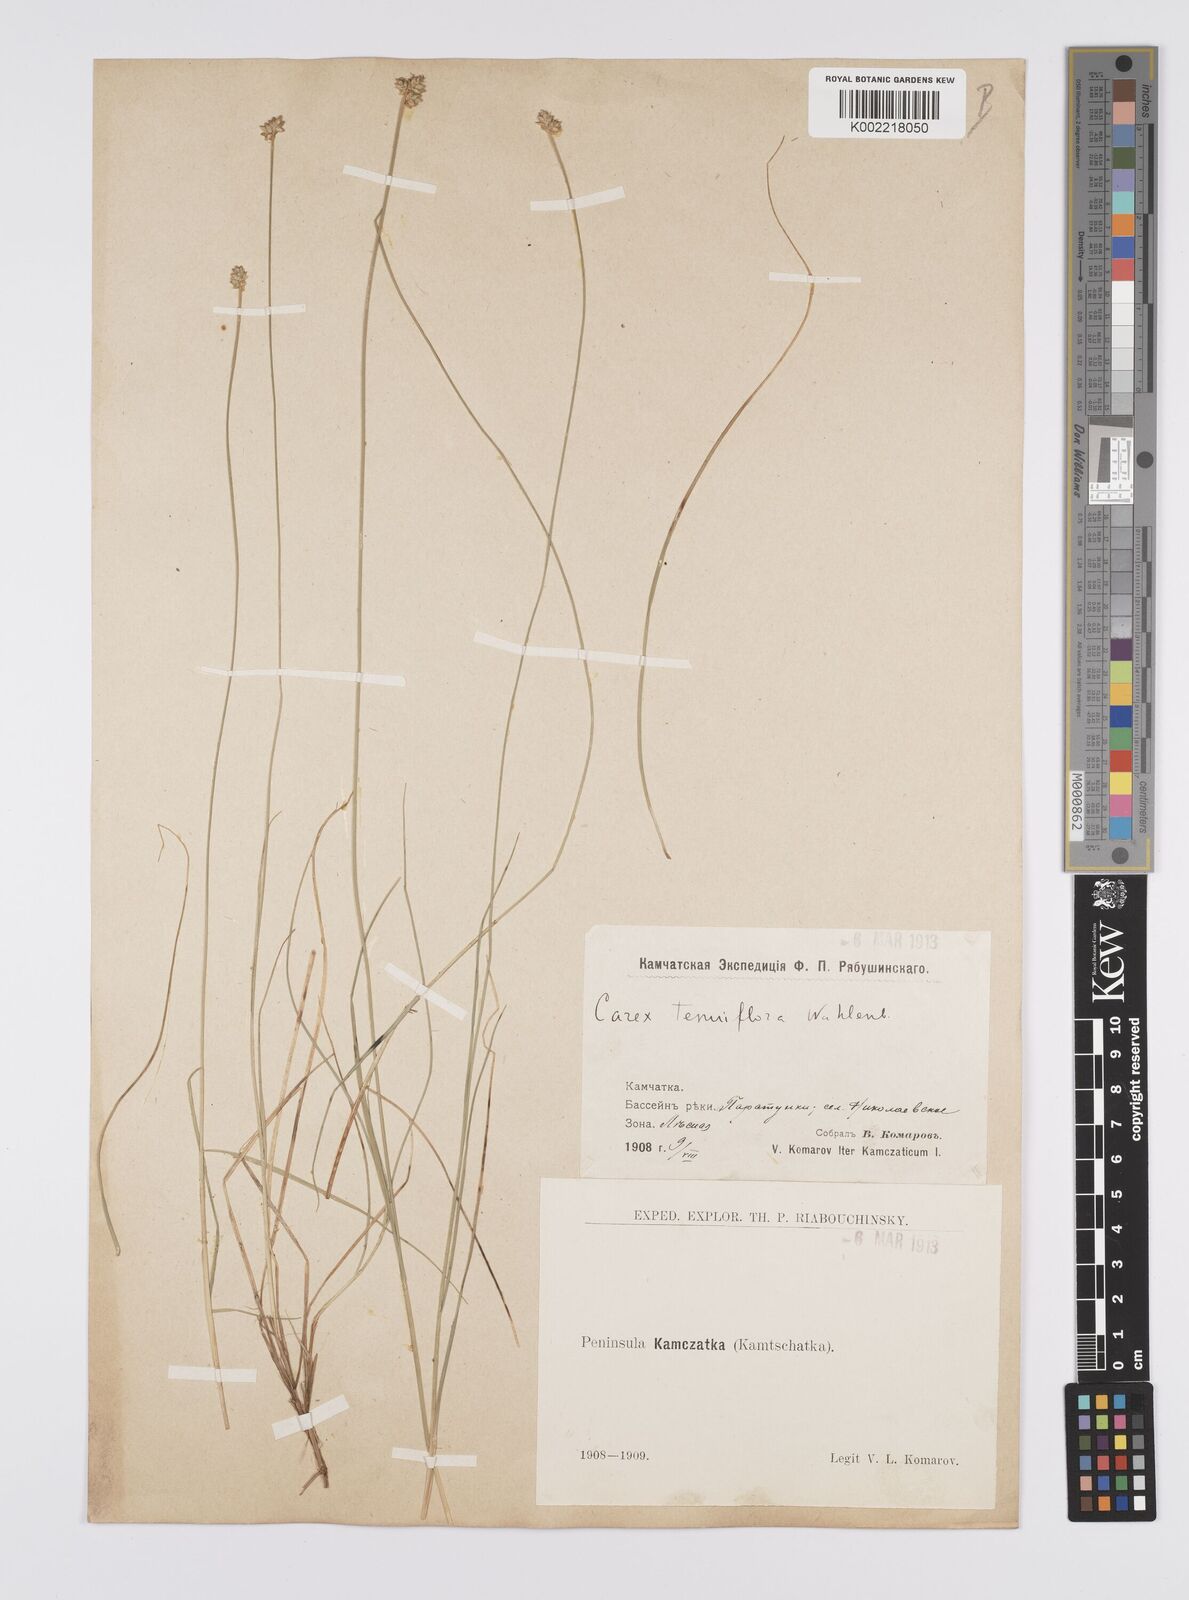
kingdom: Plantae
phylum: Tracheophyta
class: Liliopsida
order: Poales
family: Cyperaceae
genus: Carex
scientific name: Carex tenuiflora
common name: Sparse-flowered sedge
